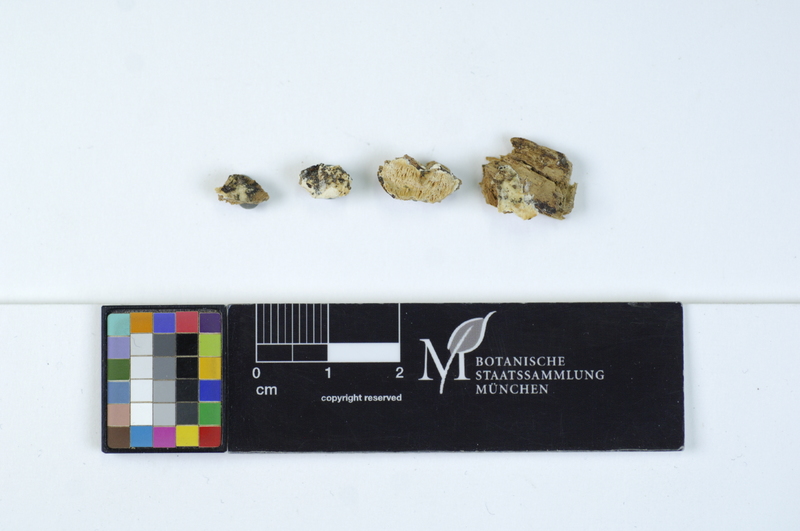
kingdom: Plantae
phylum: Tracheophyta
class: Pinopsida
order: Pinales
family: Pinaceae
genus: Picea
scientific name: Picea abies
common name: Norway spruce
